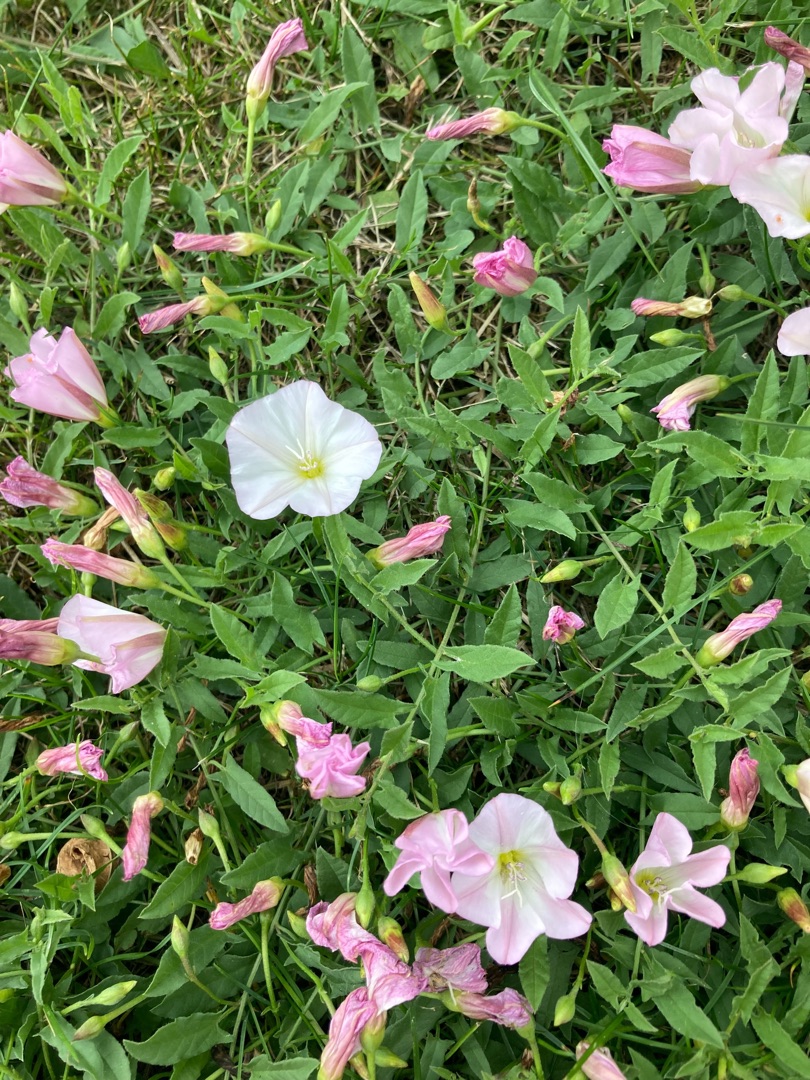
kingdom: Plantae
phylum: Tracheophyta
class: Magnoliopsida
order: Solanales
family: Convolvulaceae
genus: Convolvulus
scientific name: Convolvulus arvensis
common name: Ager-snerle
